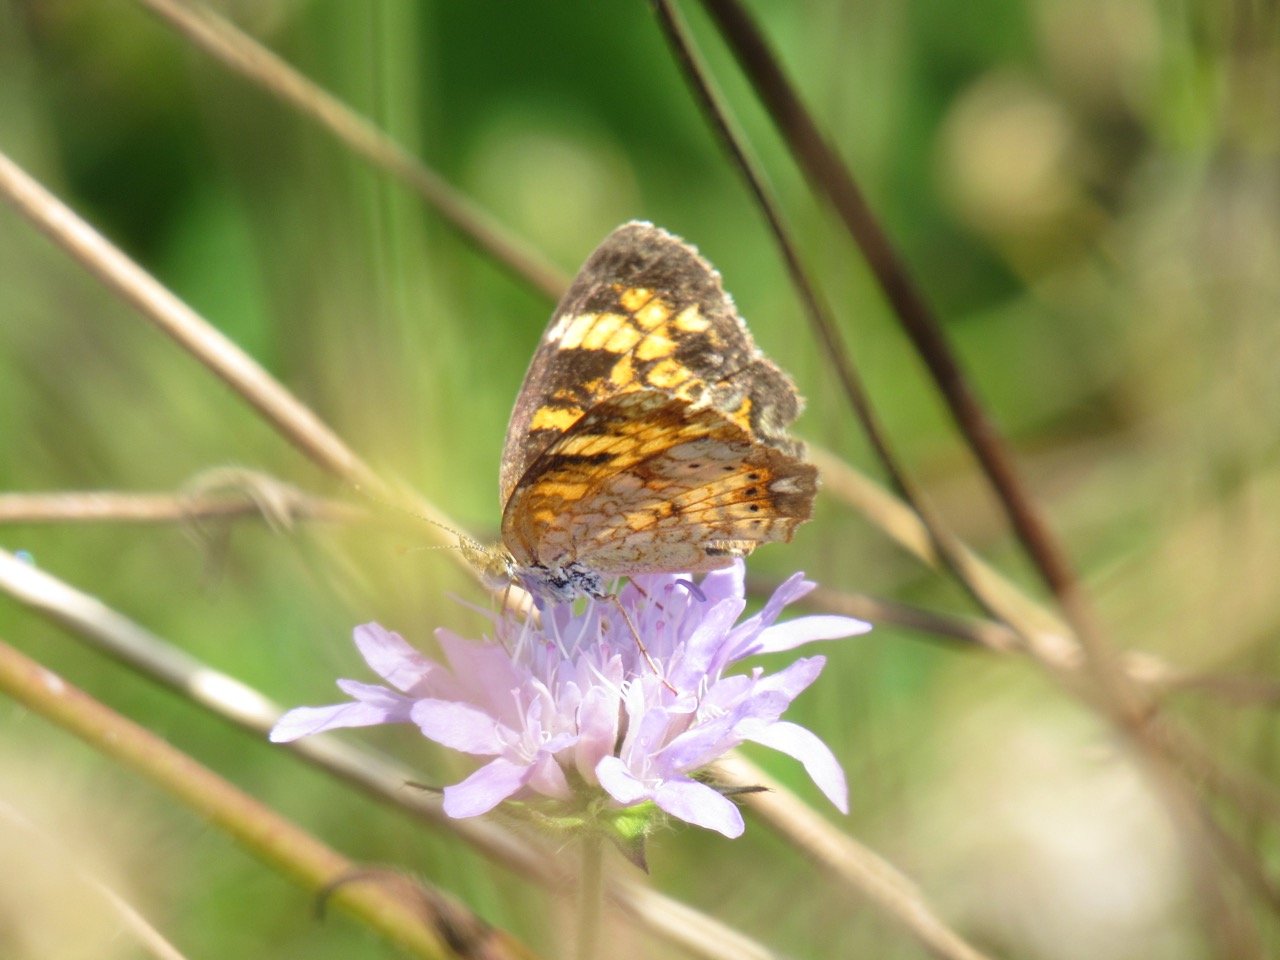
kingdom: Animalia
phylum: Arthropoda
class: Insecta
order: Lepidoptera
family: Nymphalidae
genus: Phyciodes
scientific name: Phyciodes tharos
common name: Pearl Crescent
